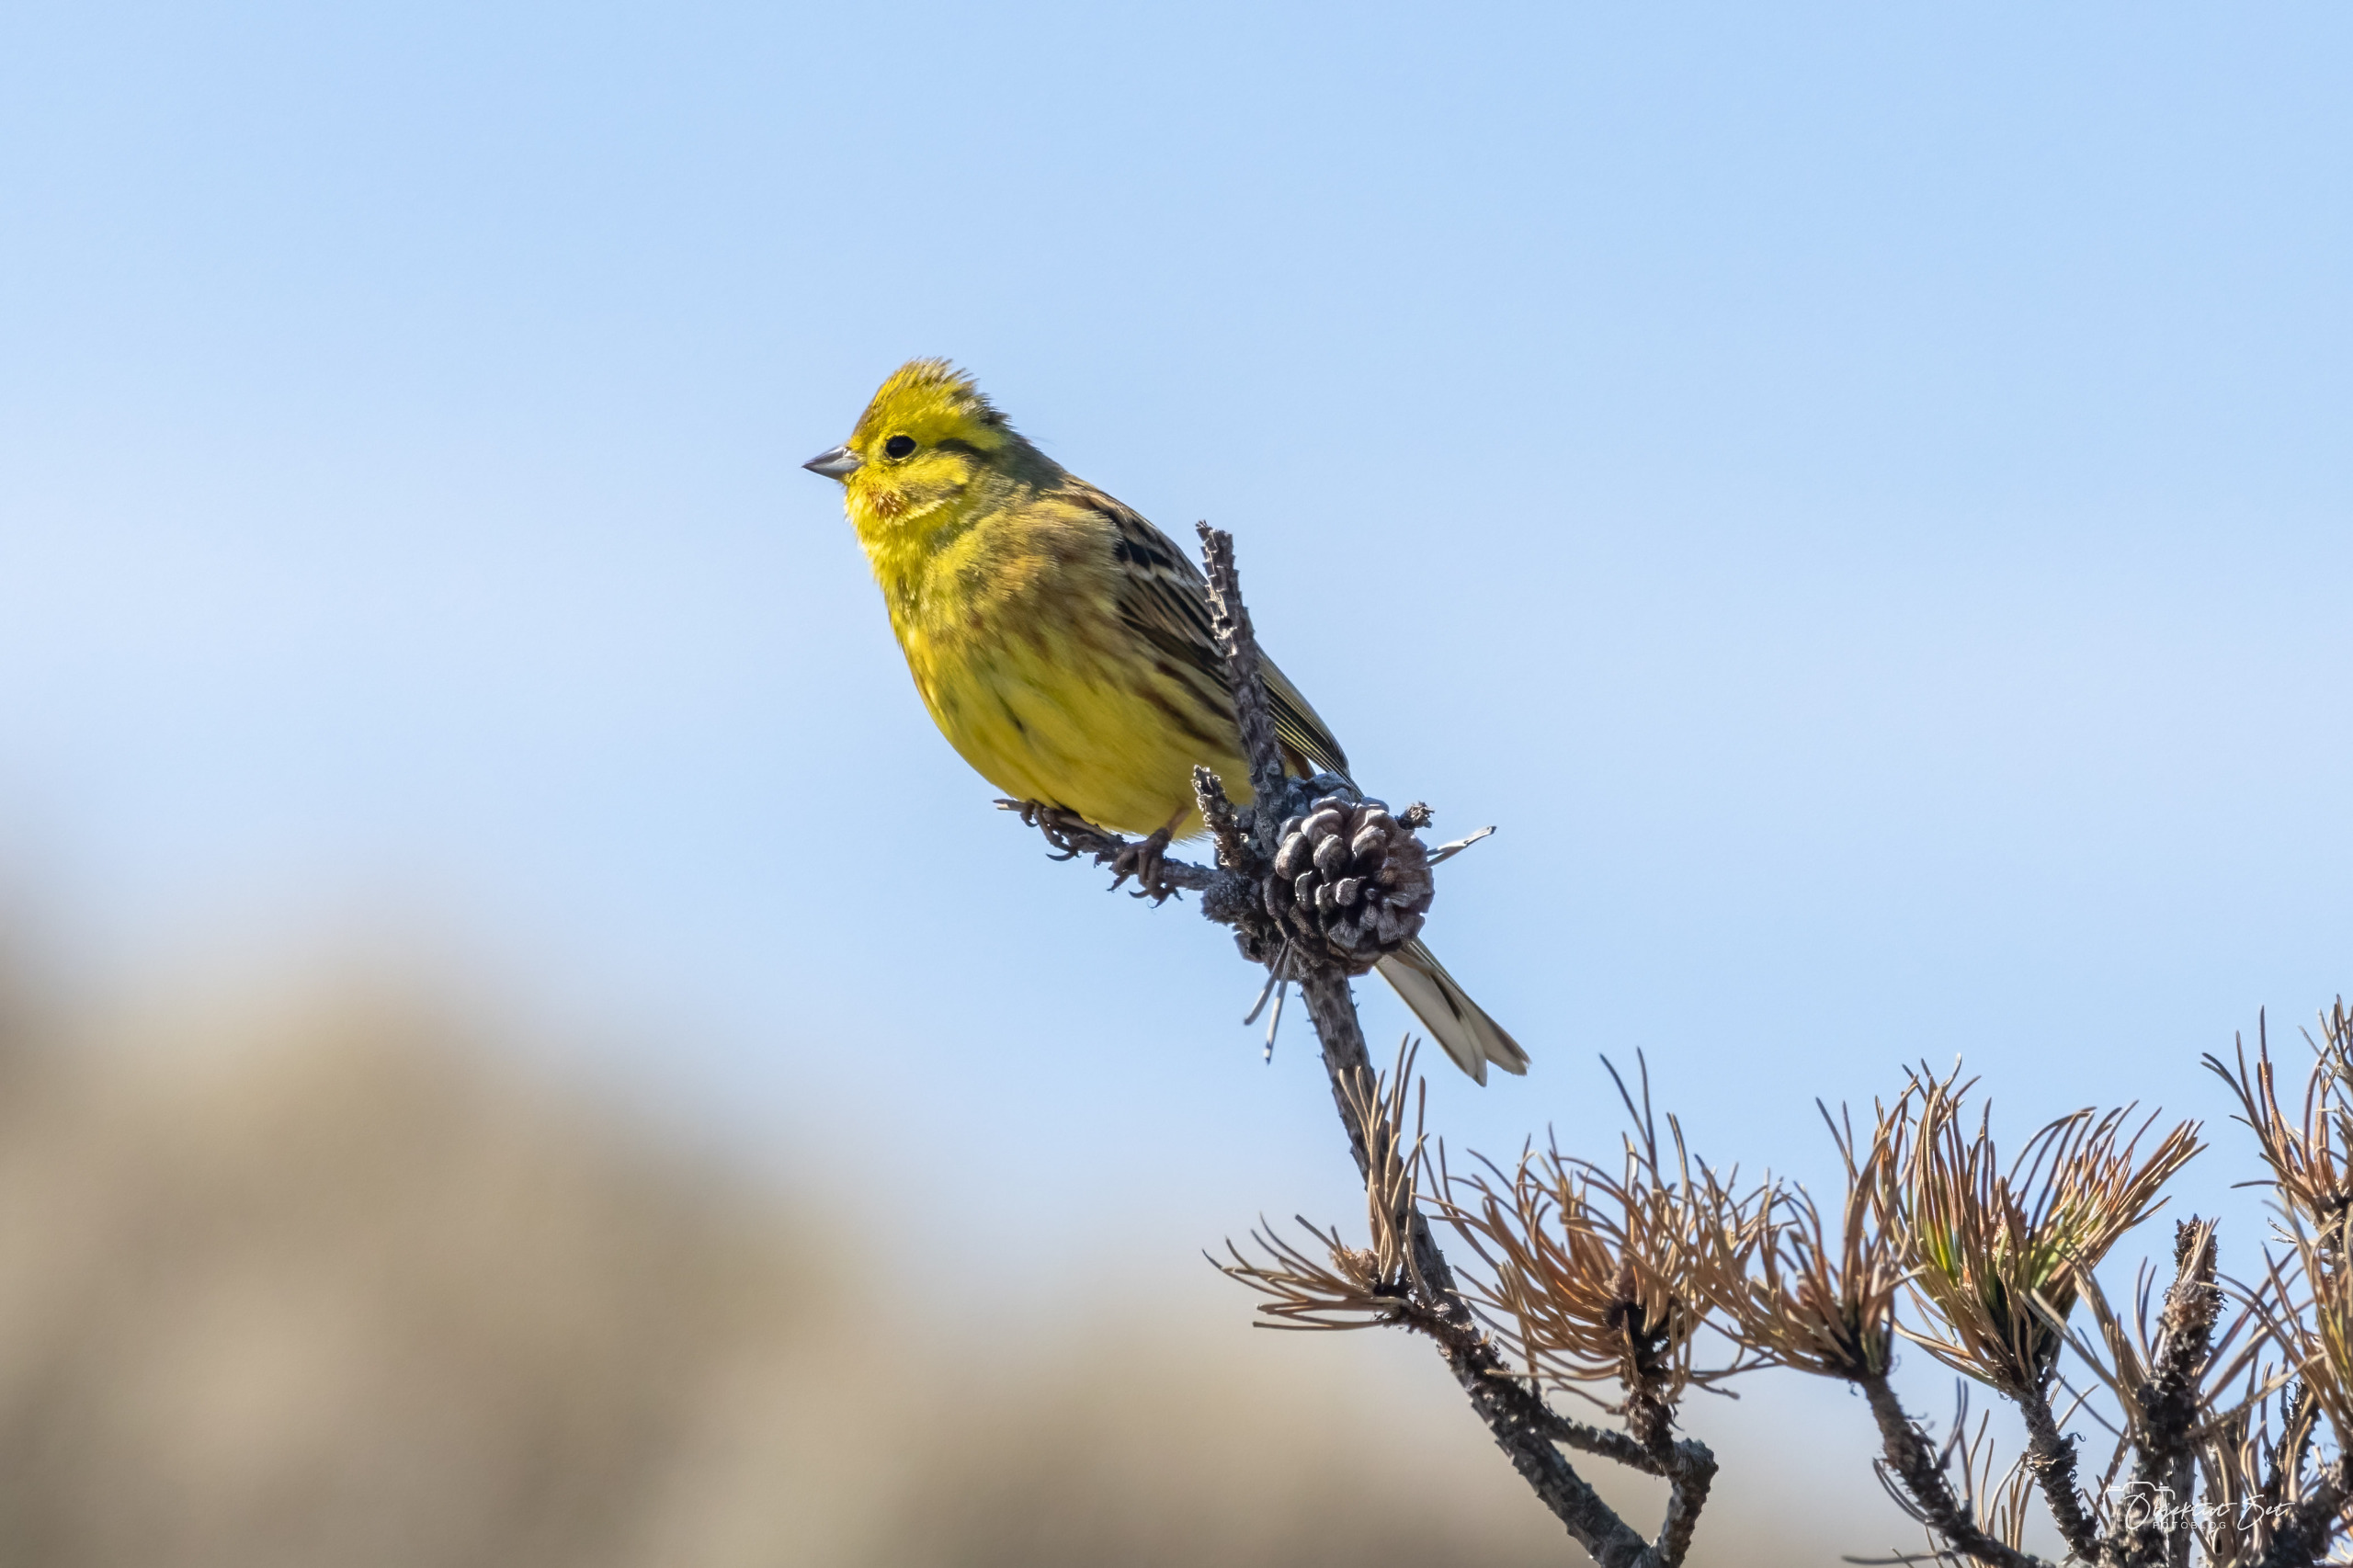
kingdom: Animalia
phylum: Chordata
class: Aves
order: Passeriformes
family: Emberizidae
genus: Emberiza
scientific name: Emberiza citrinella
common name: Gulspurv
